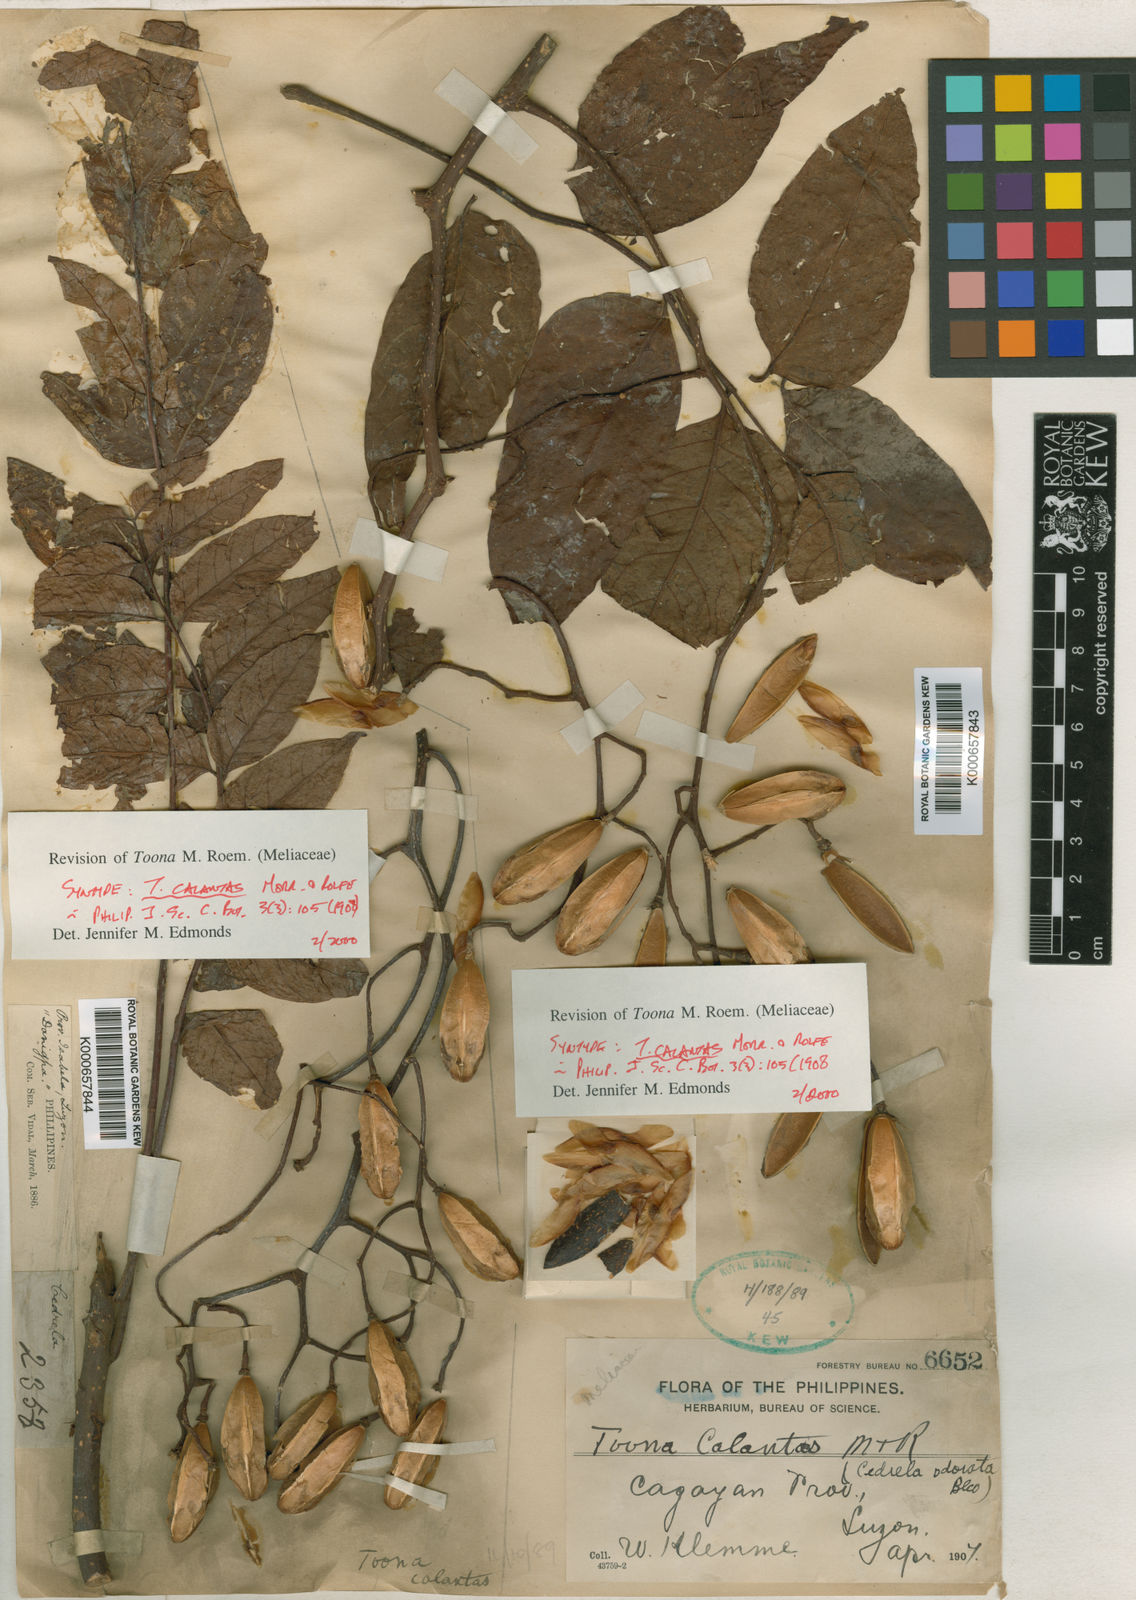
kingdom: Plantae
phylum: Tracheophyta
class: Magnoliopsida
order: Sapindales
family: Meliaceae
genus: Toona
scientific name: Toona calantas
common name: Philippine cedar
